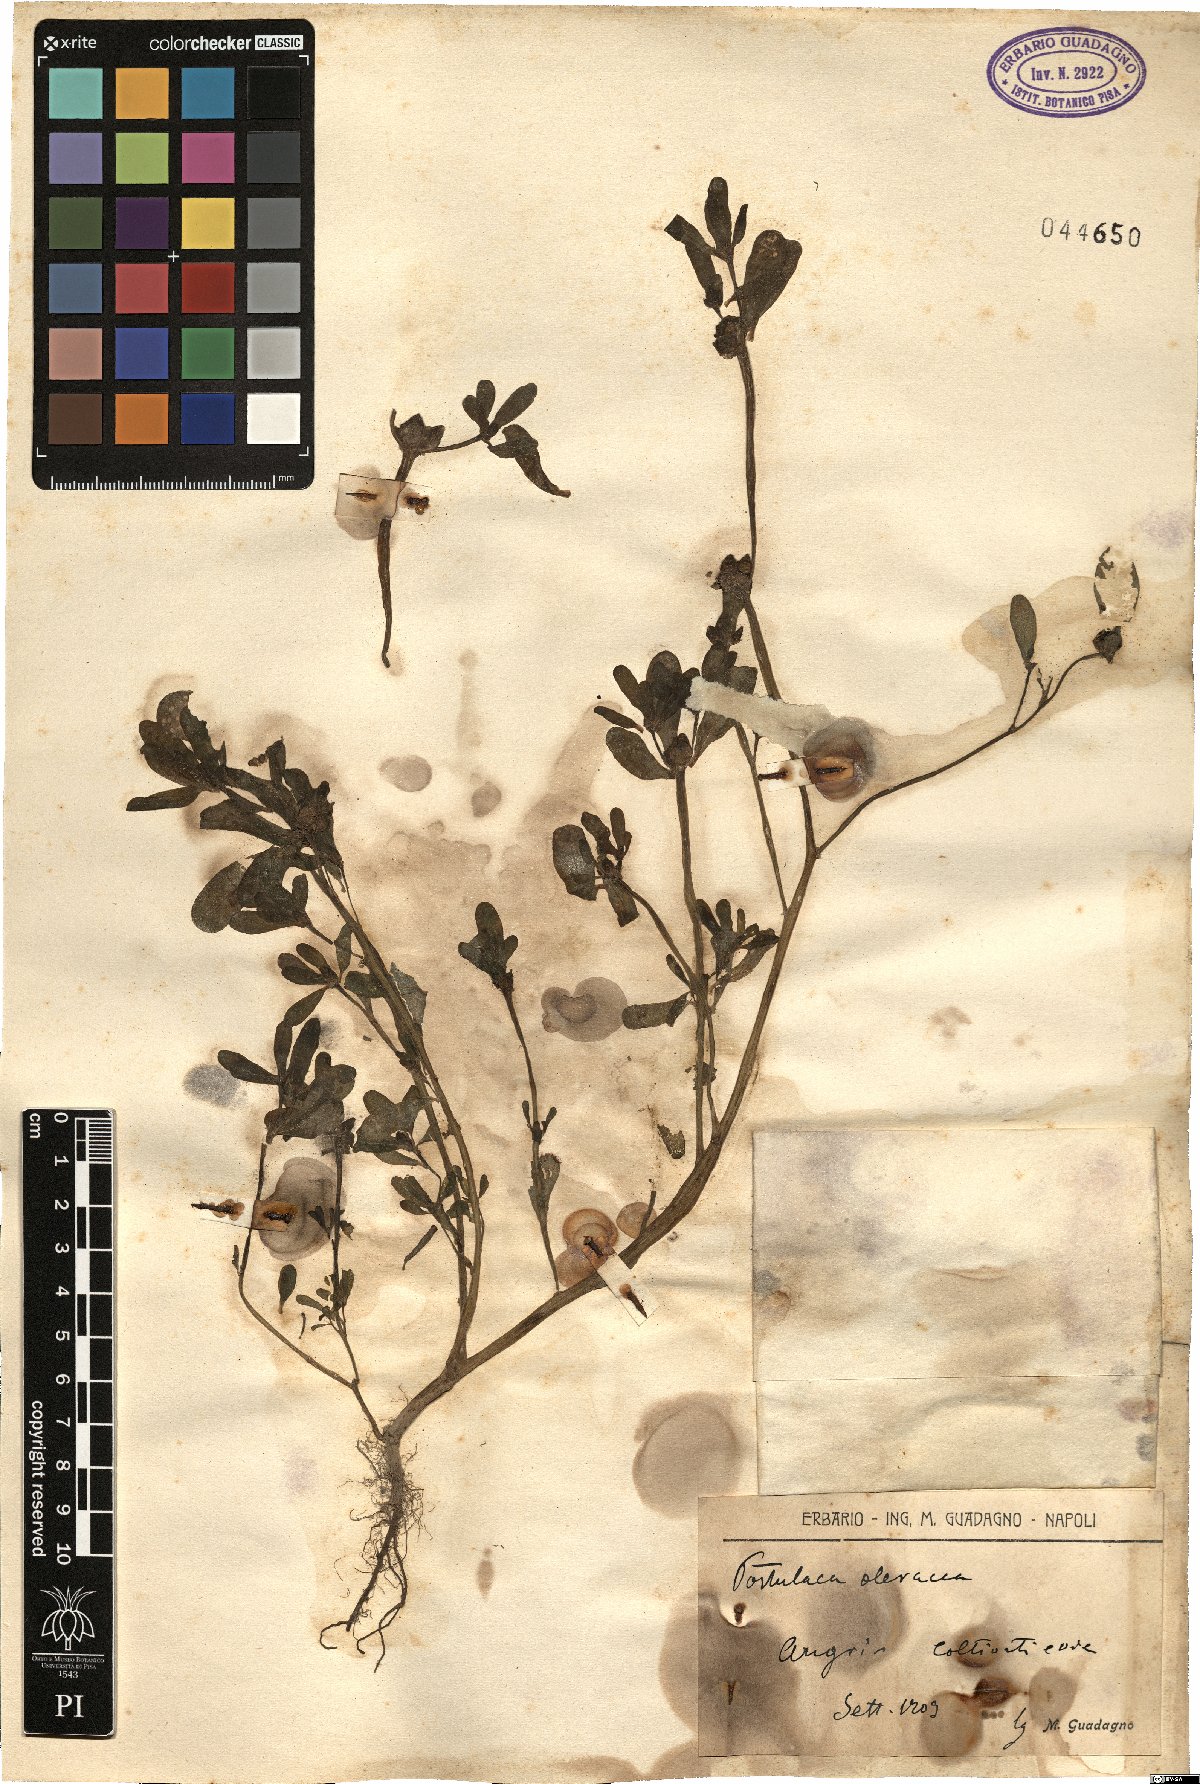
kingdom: Plantae
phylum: Tracheophyta
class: Magnoliopsida
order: Caryophyllales
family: Portulacaceae
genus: Portulaca
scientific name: Portulaca oleracea
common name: Common purslane
